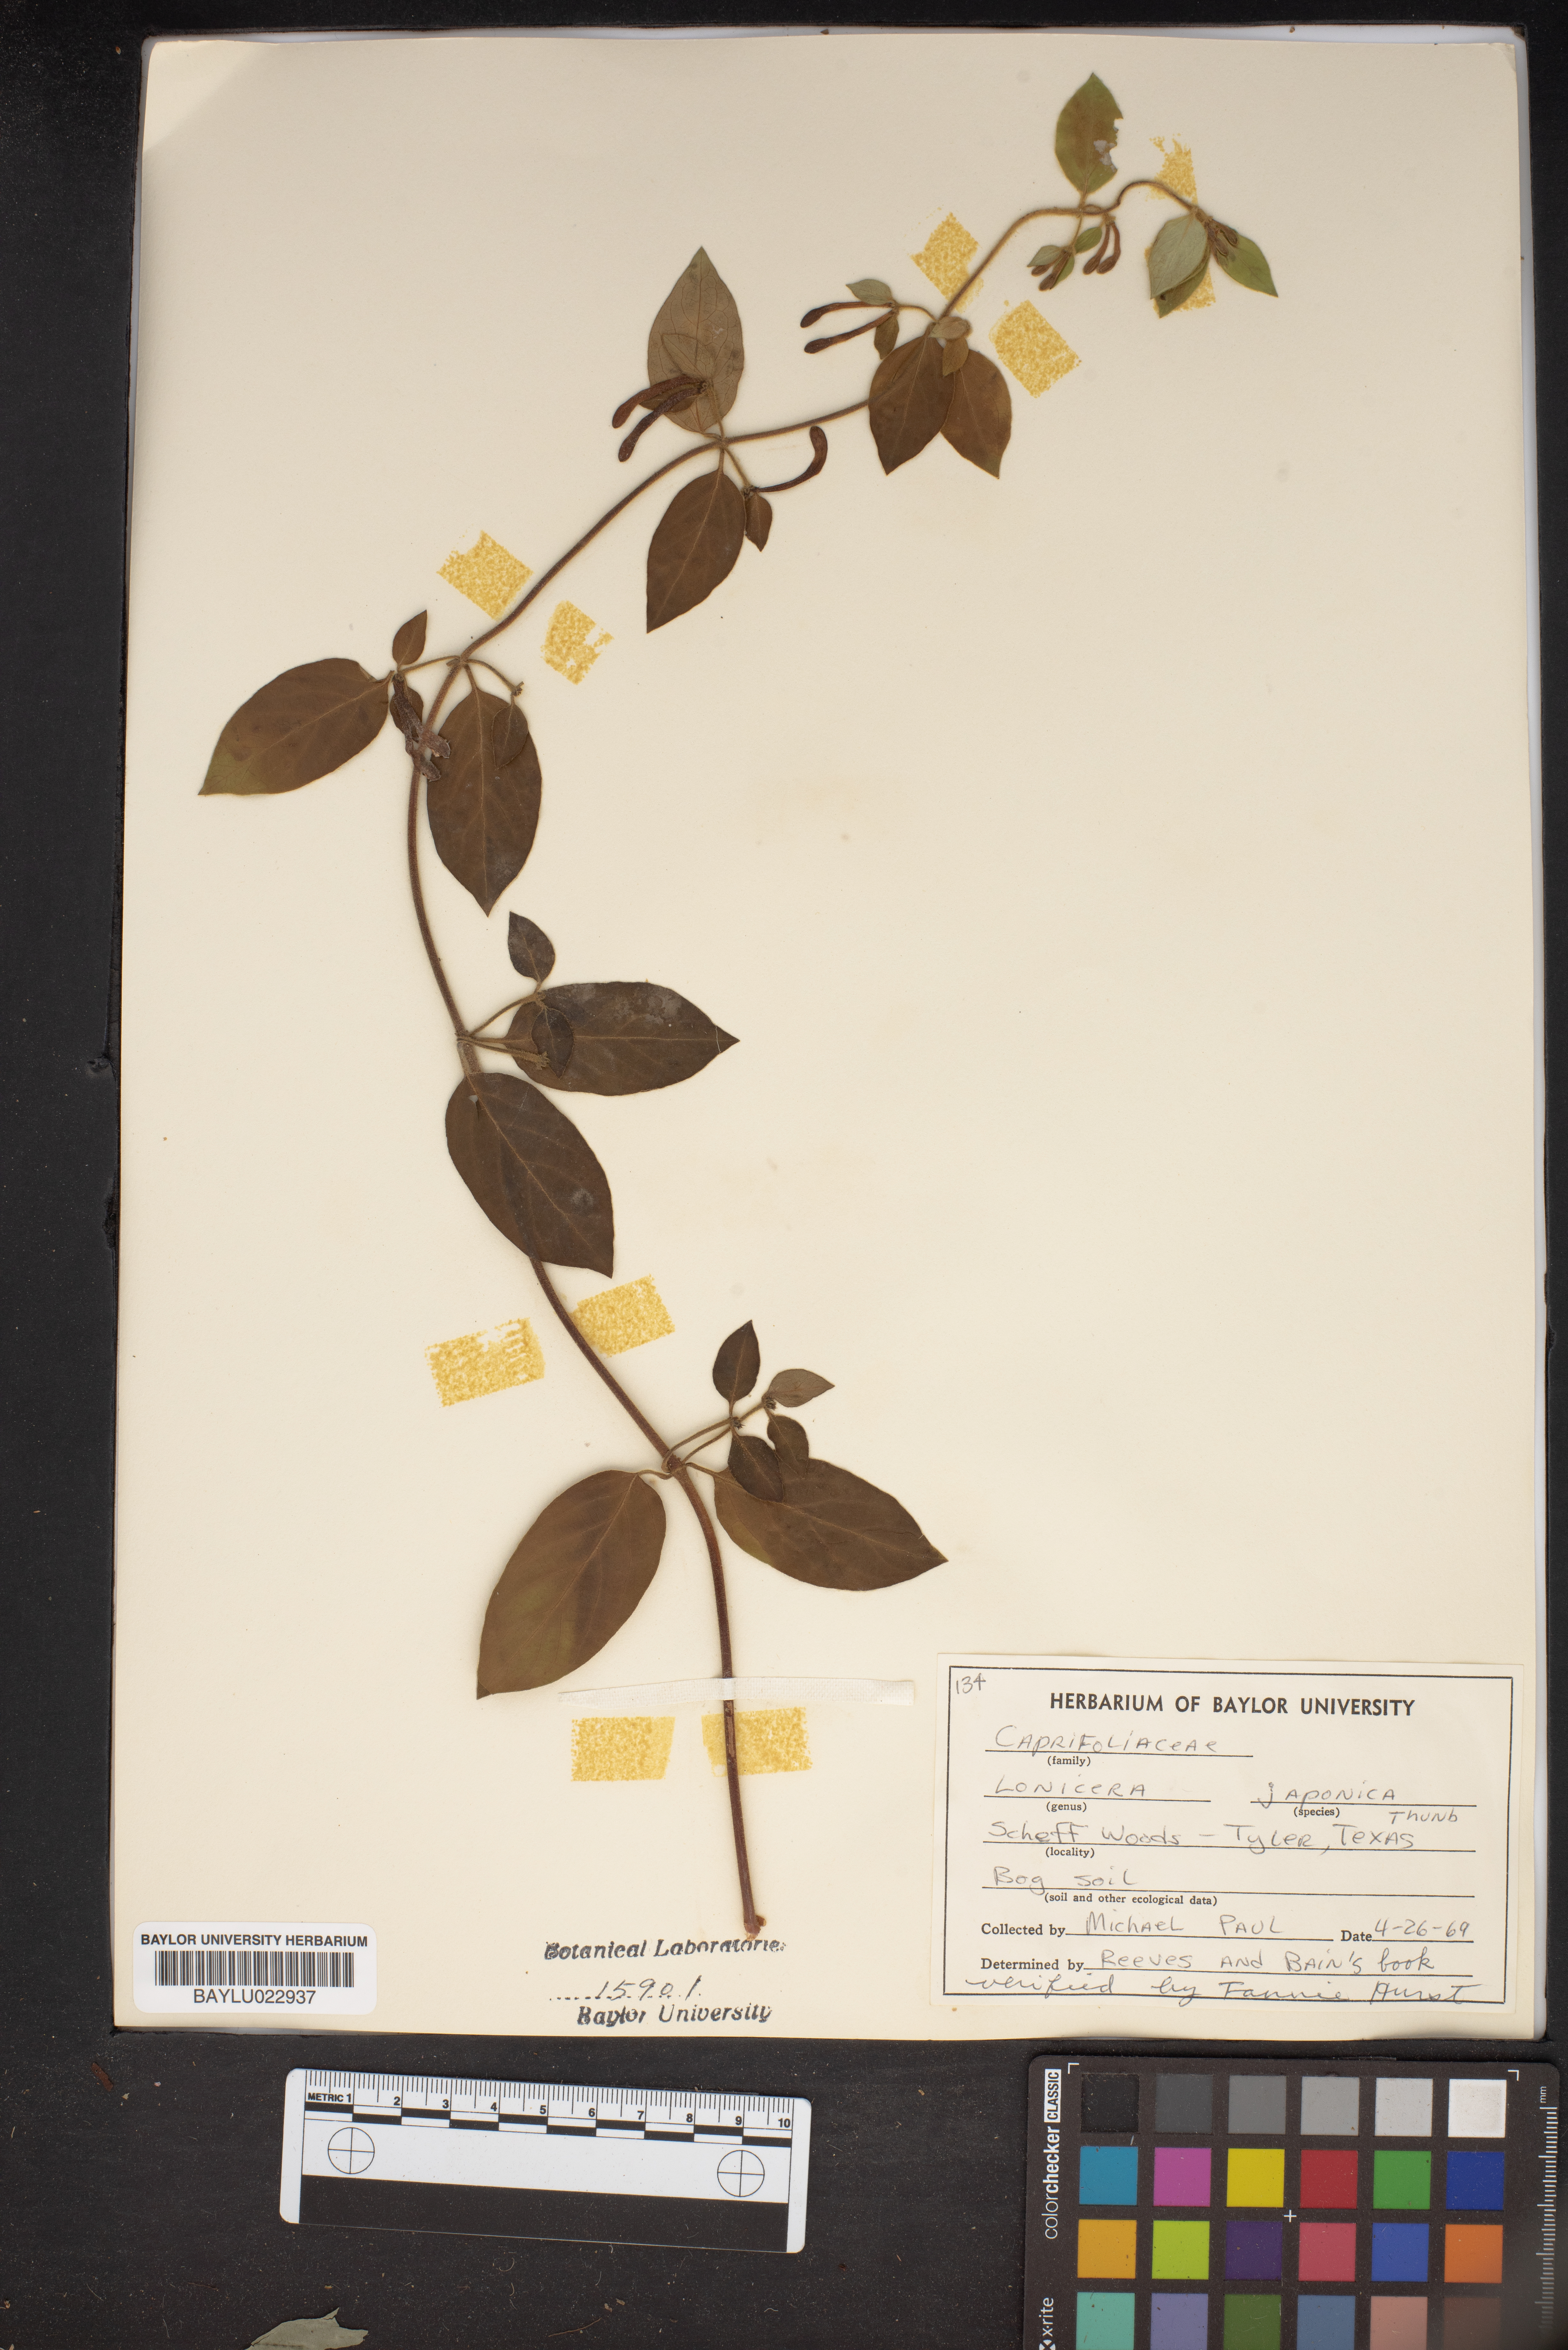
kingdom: Plantae
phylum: Tracheophyta
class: Magnoliopsida
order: Dipsacales
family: Caprifoliaceae
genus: Lonicera
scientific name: Lonicera japonica
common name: Japanese honeysuckle
